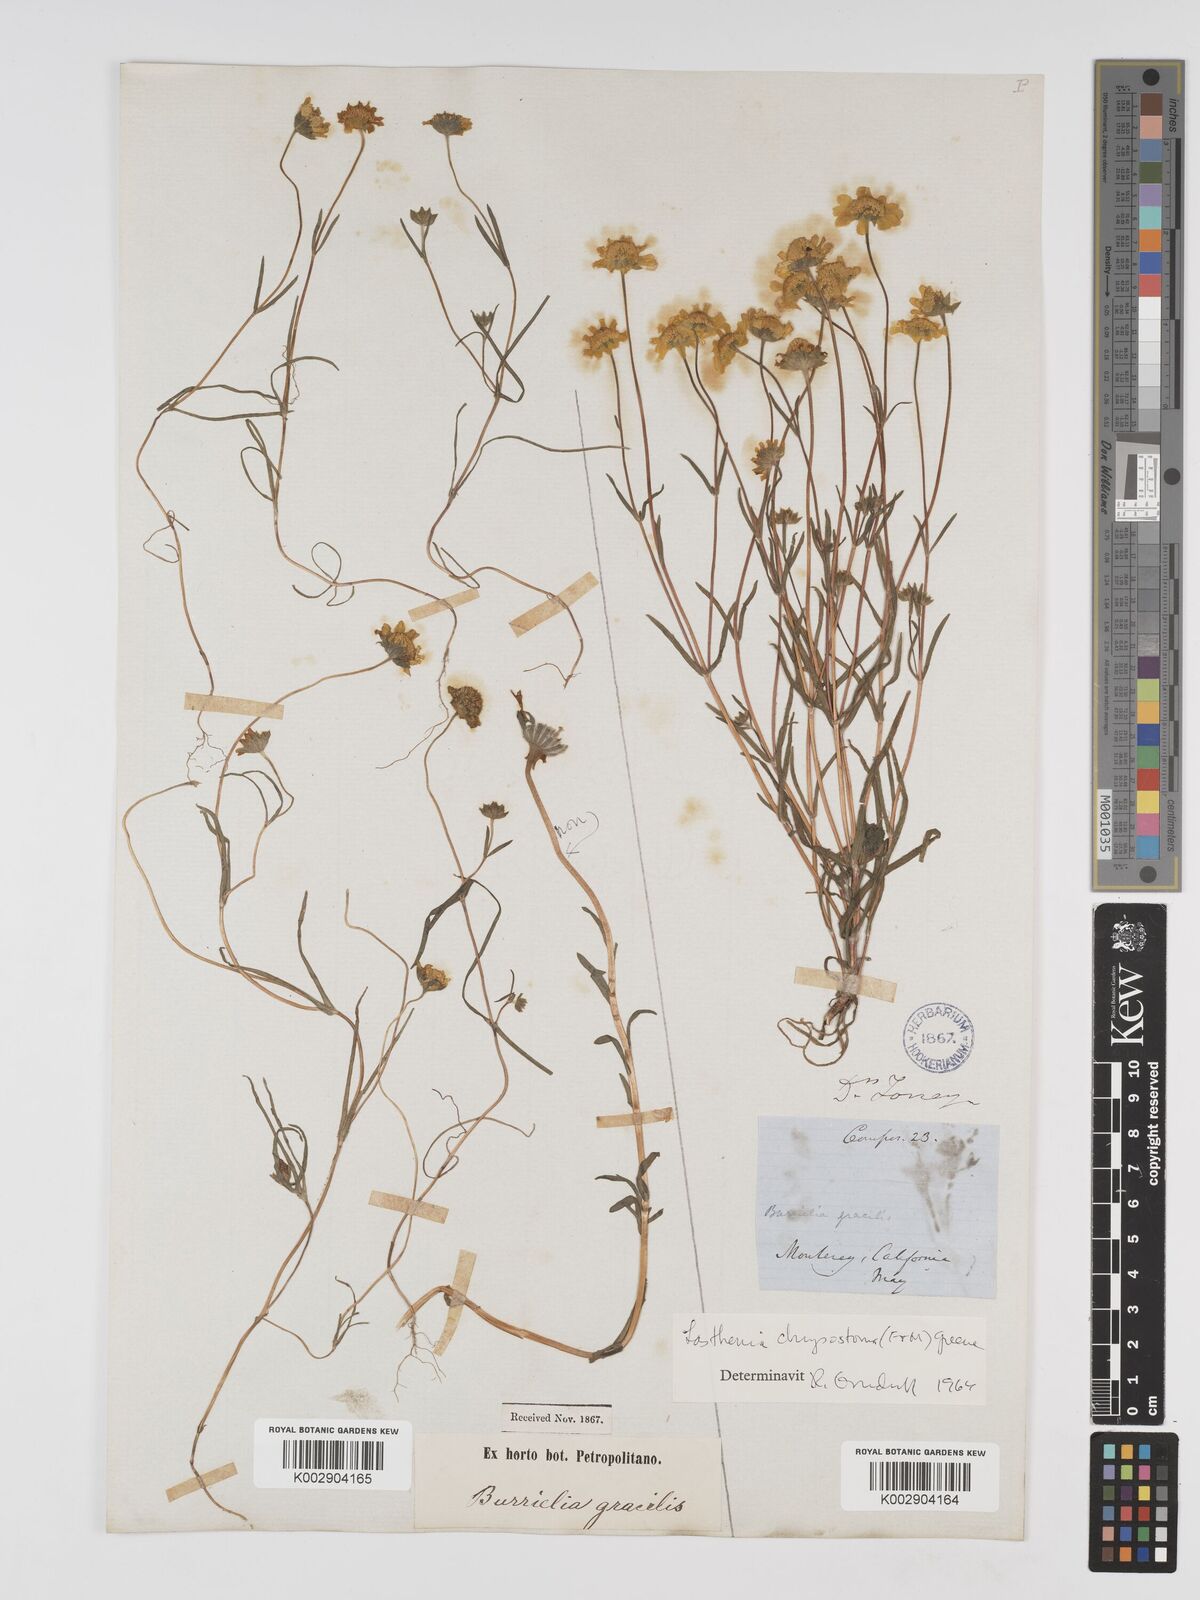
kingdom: Plantae
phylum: Tracheophyta
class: Magnoliopsida
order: Asterales
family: Asteraceae
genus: Lasthenia
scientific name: Lasthenia californica
